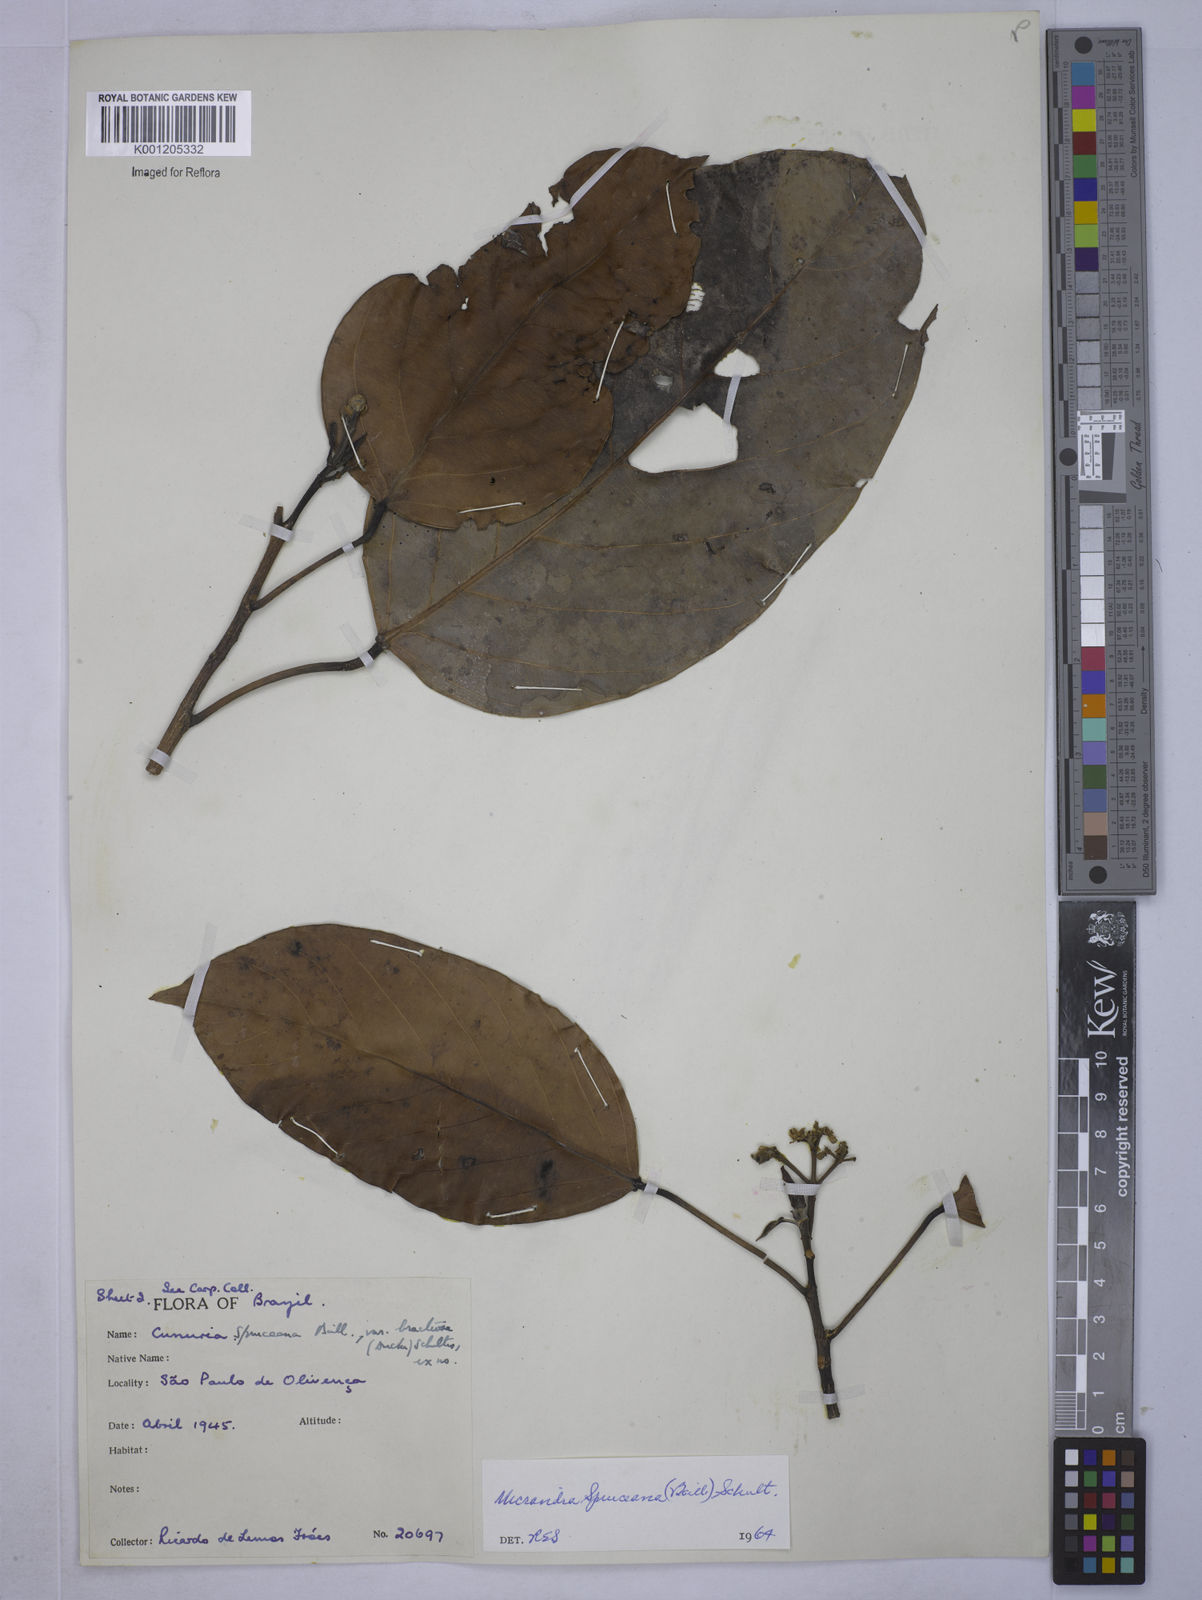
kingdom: Plantae
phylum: Tracheophyta
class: Magnoliopsida
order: Malpighiales
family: Euphorbiaceae
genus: Micrandra
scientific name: Micrandra spruceana
